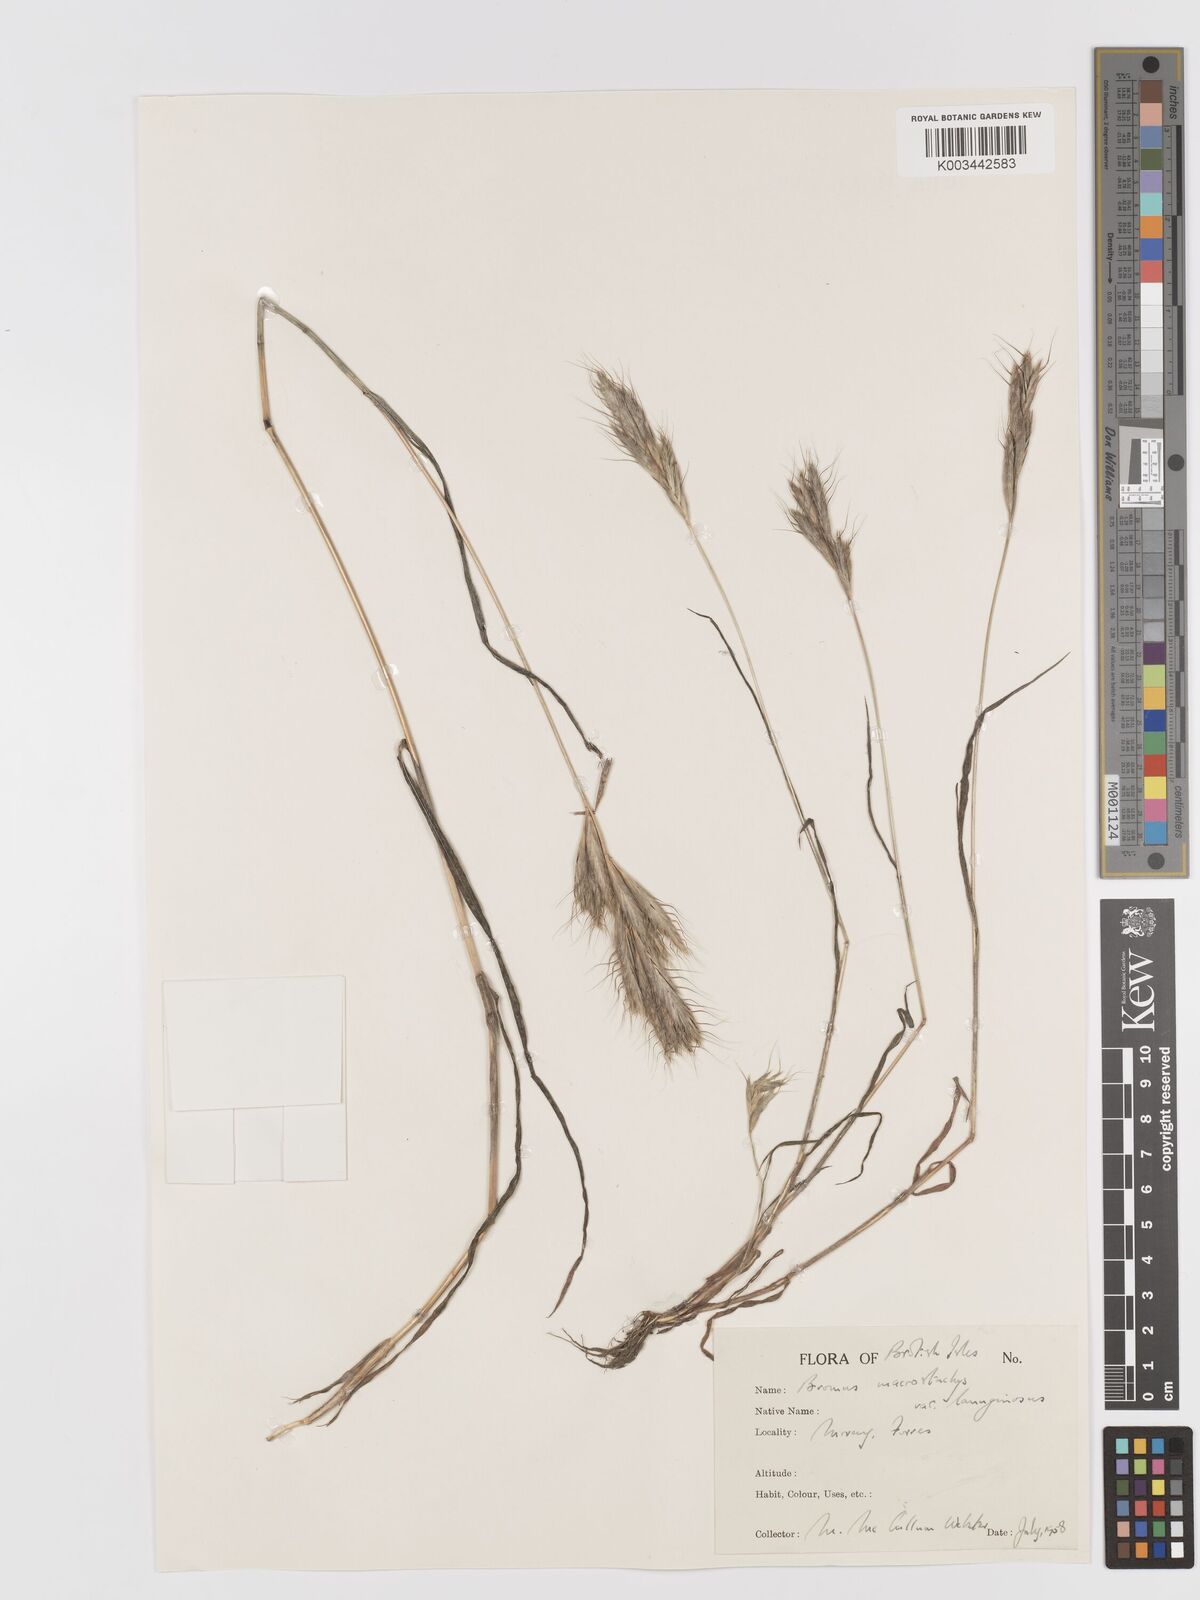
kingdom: Plantae
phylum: Tracheophyta
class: Liliopsida
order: Poales
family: Poaceae
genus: Bromus
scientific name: Bromus lanceolatus
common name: Mediterranean brome
